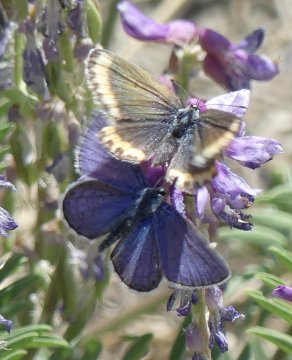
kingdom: Animalia
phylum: Arthropoda
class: Insecta
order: Lepidoptera
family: Lycaenidae
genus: Lycaeides
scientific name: Lycaeides melissa
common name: Melissa Blue
